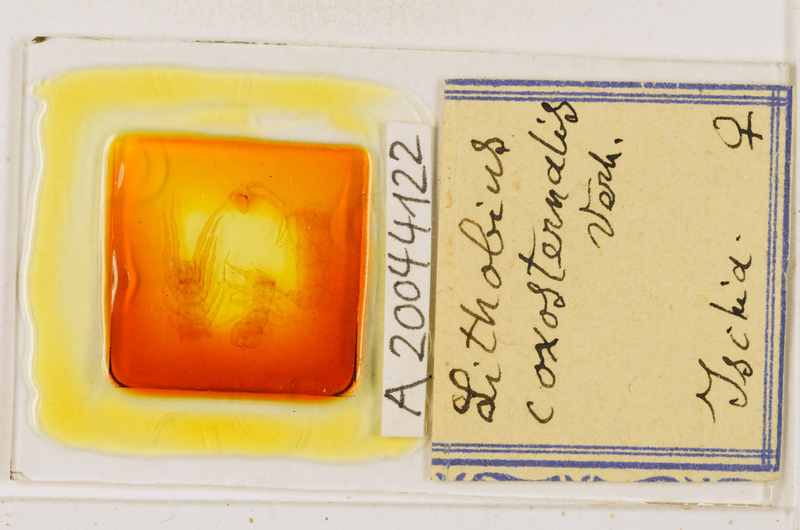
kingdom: Animalia
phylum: Arthropoda
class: Chilopoda
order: Lithobiomorpha
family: Lithobiidae
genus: Lithobius
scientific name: Lithobius erythrocephalus
